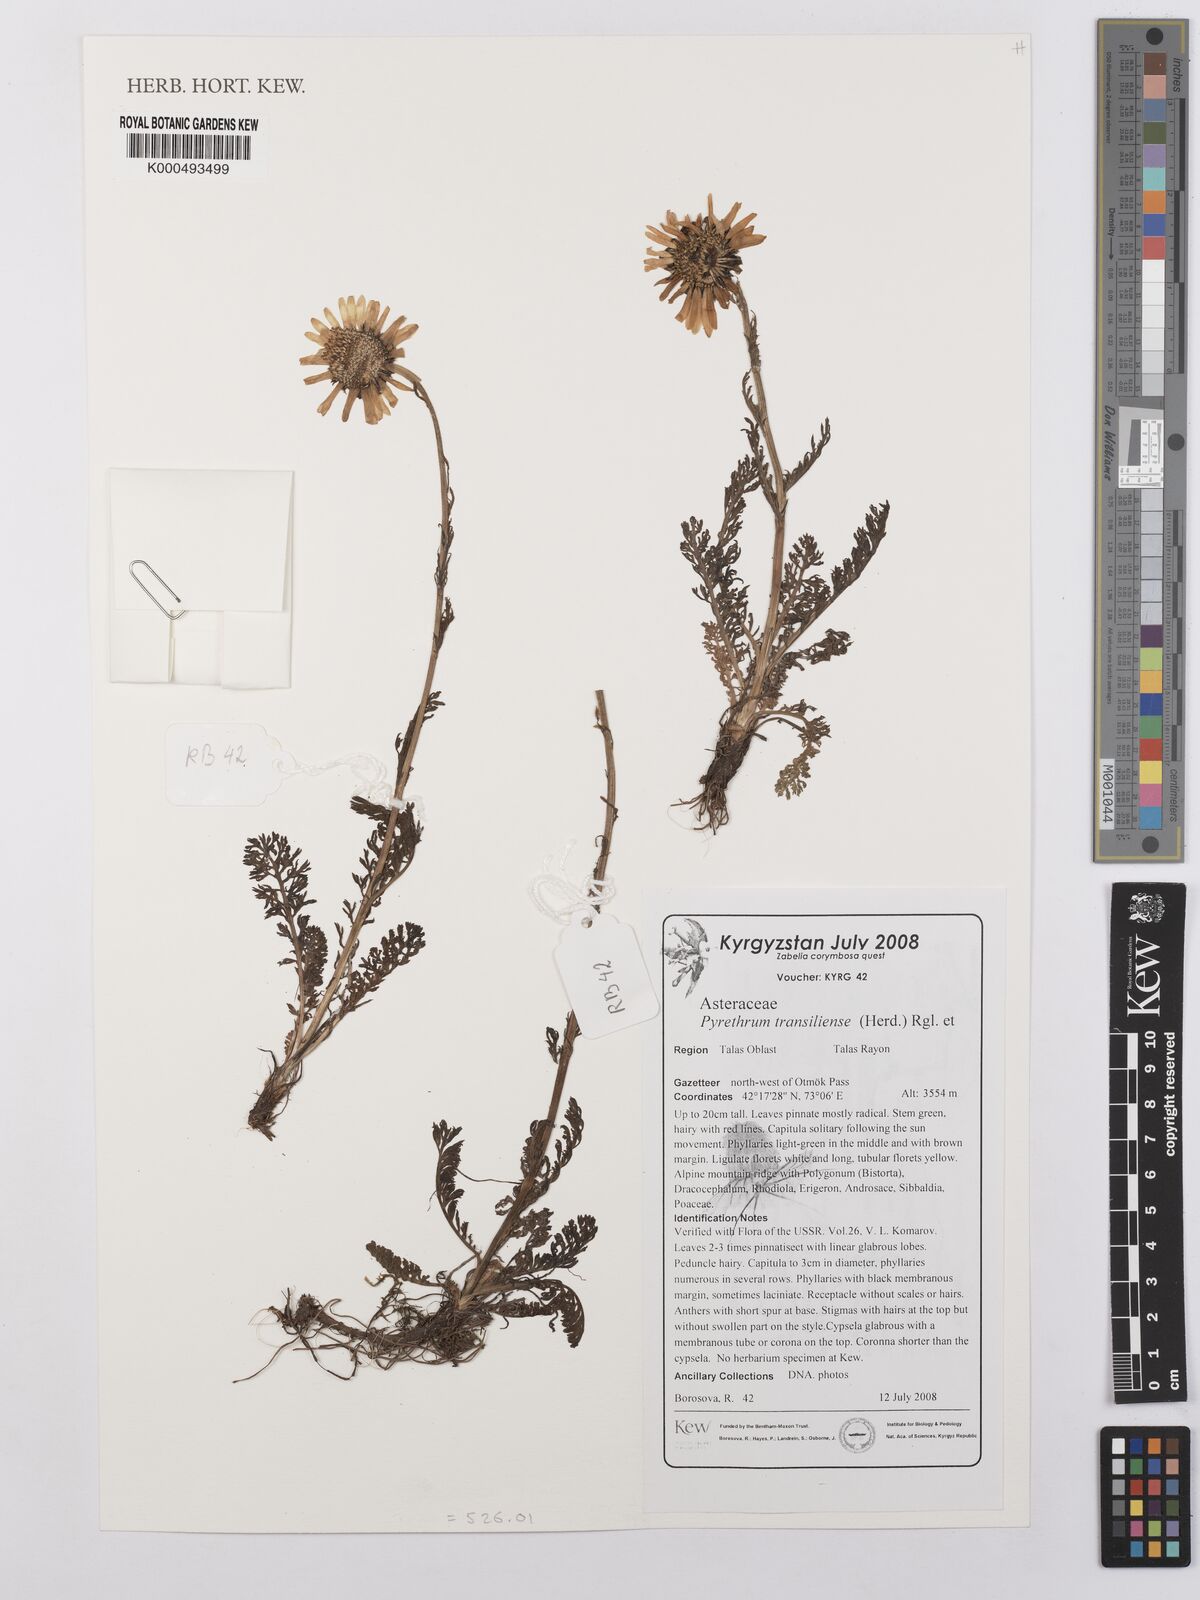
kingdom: Plantae
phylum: Tracheophyta
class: Magnoliopsida
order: Asterales
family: Asteraceae
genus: Richteria
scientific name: Richteria pyrethroides
